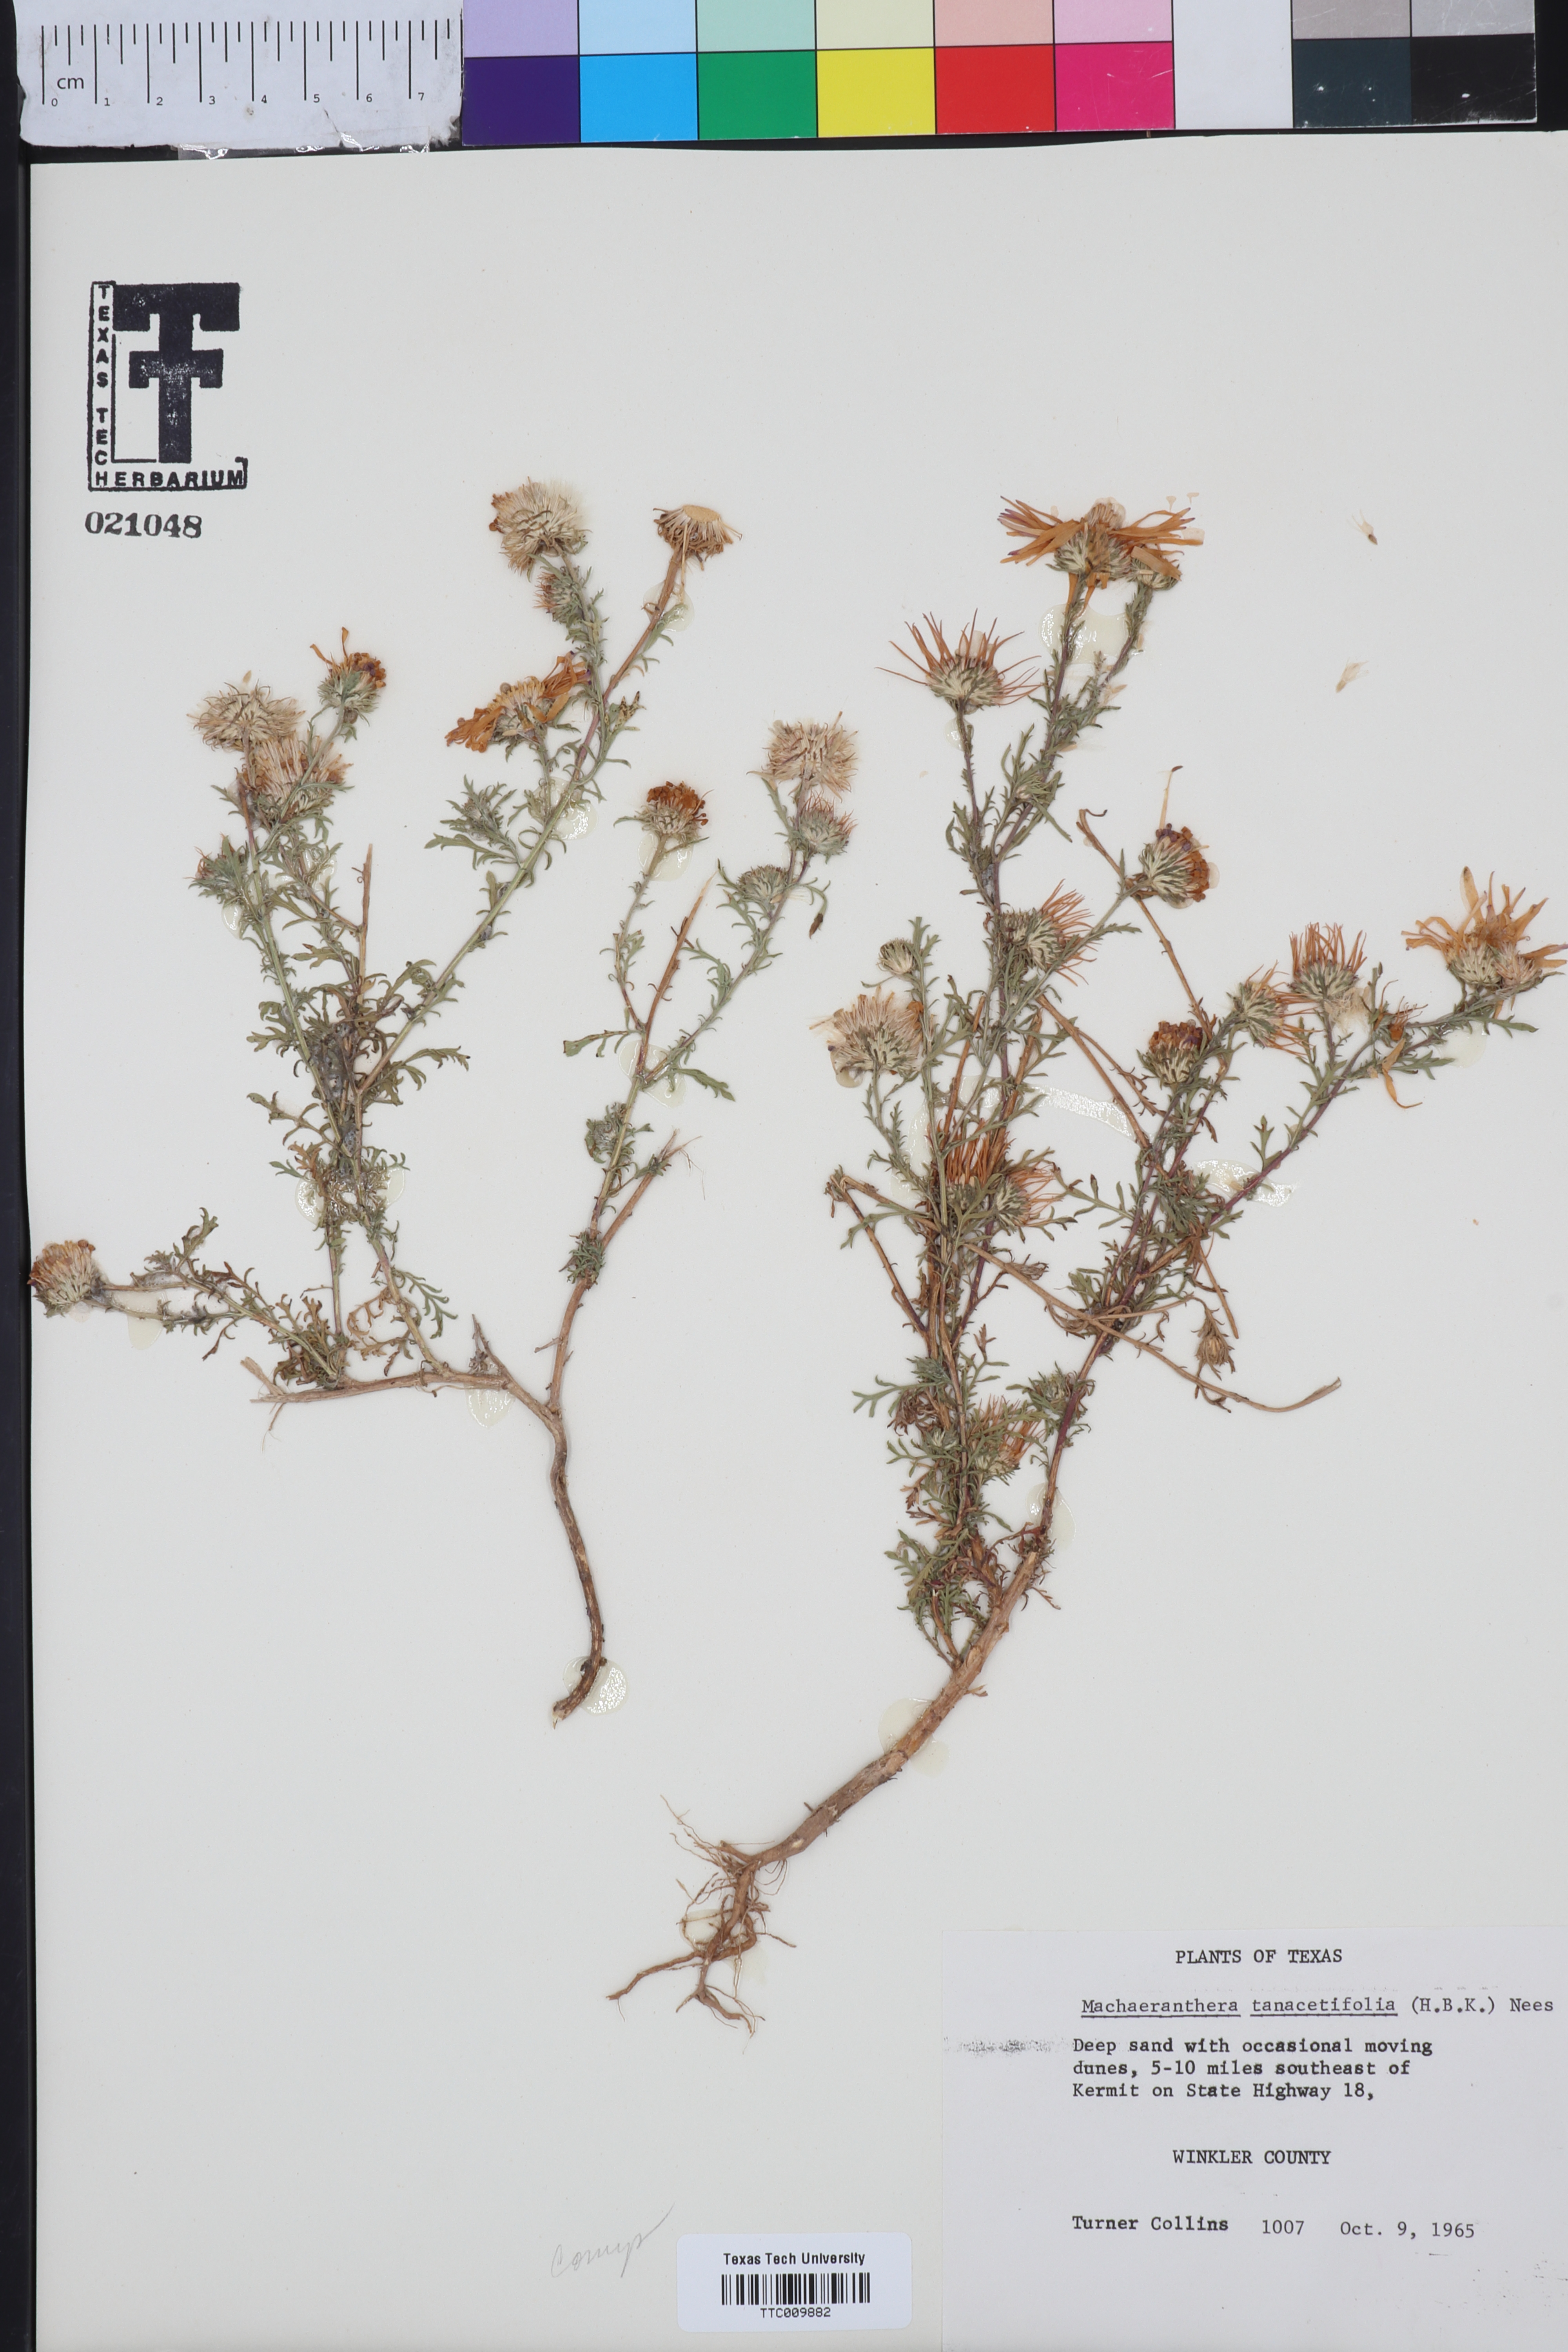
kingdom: Plantae
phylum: Tracheophyta
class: Magnoliopsida
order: Asterales
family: Asteraceae
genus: Machaeranthera
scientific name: Machaeranthera tanacetifolia
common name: Tansy-aster
